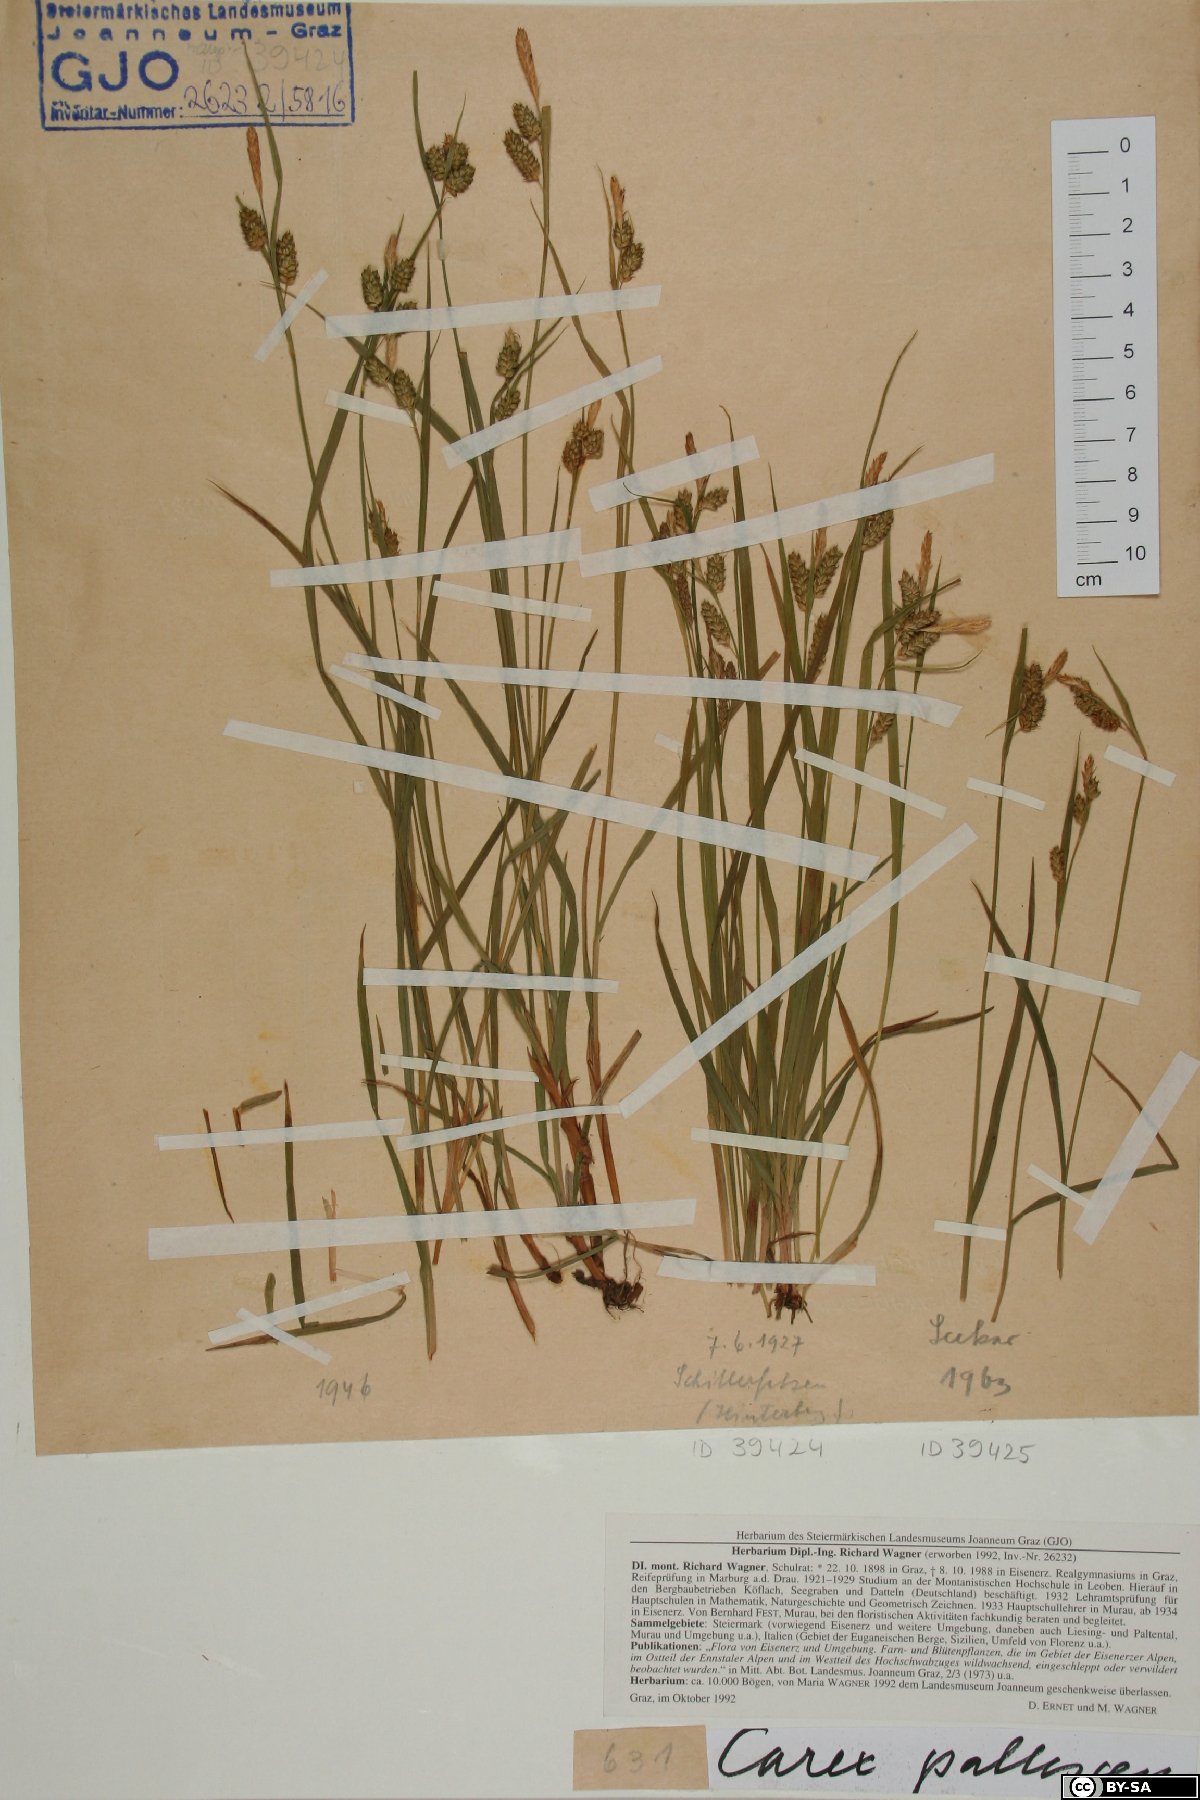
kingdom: Plantae
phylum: Tracheophyta
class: Liliopsida
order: Poales
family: Cyperaceae
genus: Carex
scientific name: Carex pallescens
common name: Pale sedge
